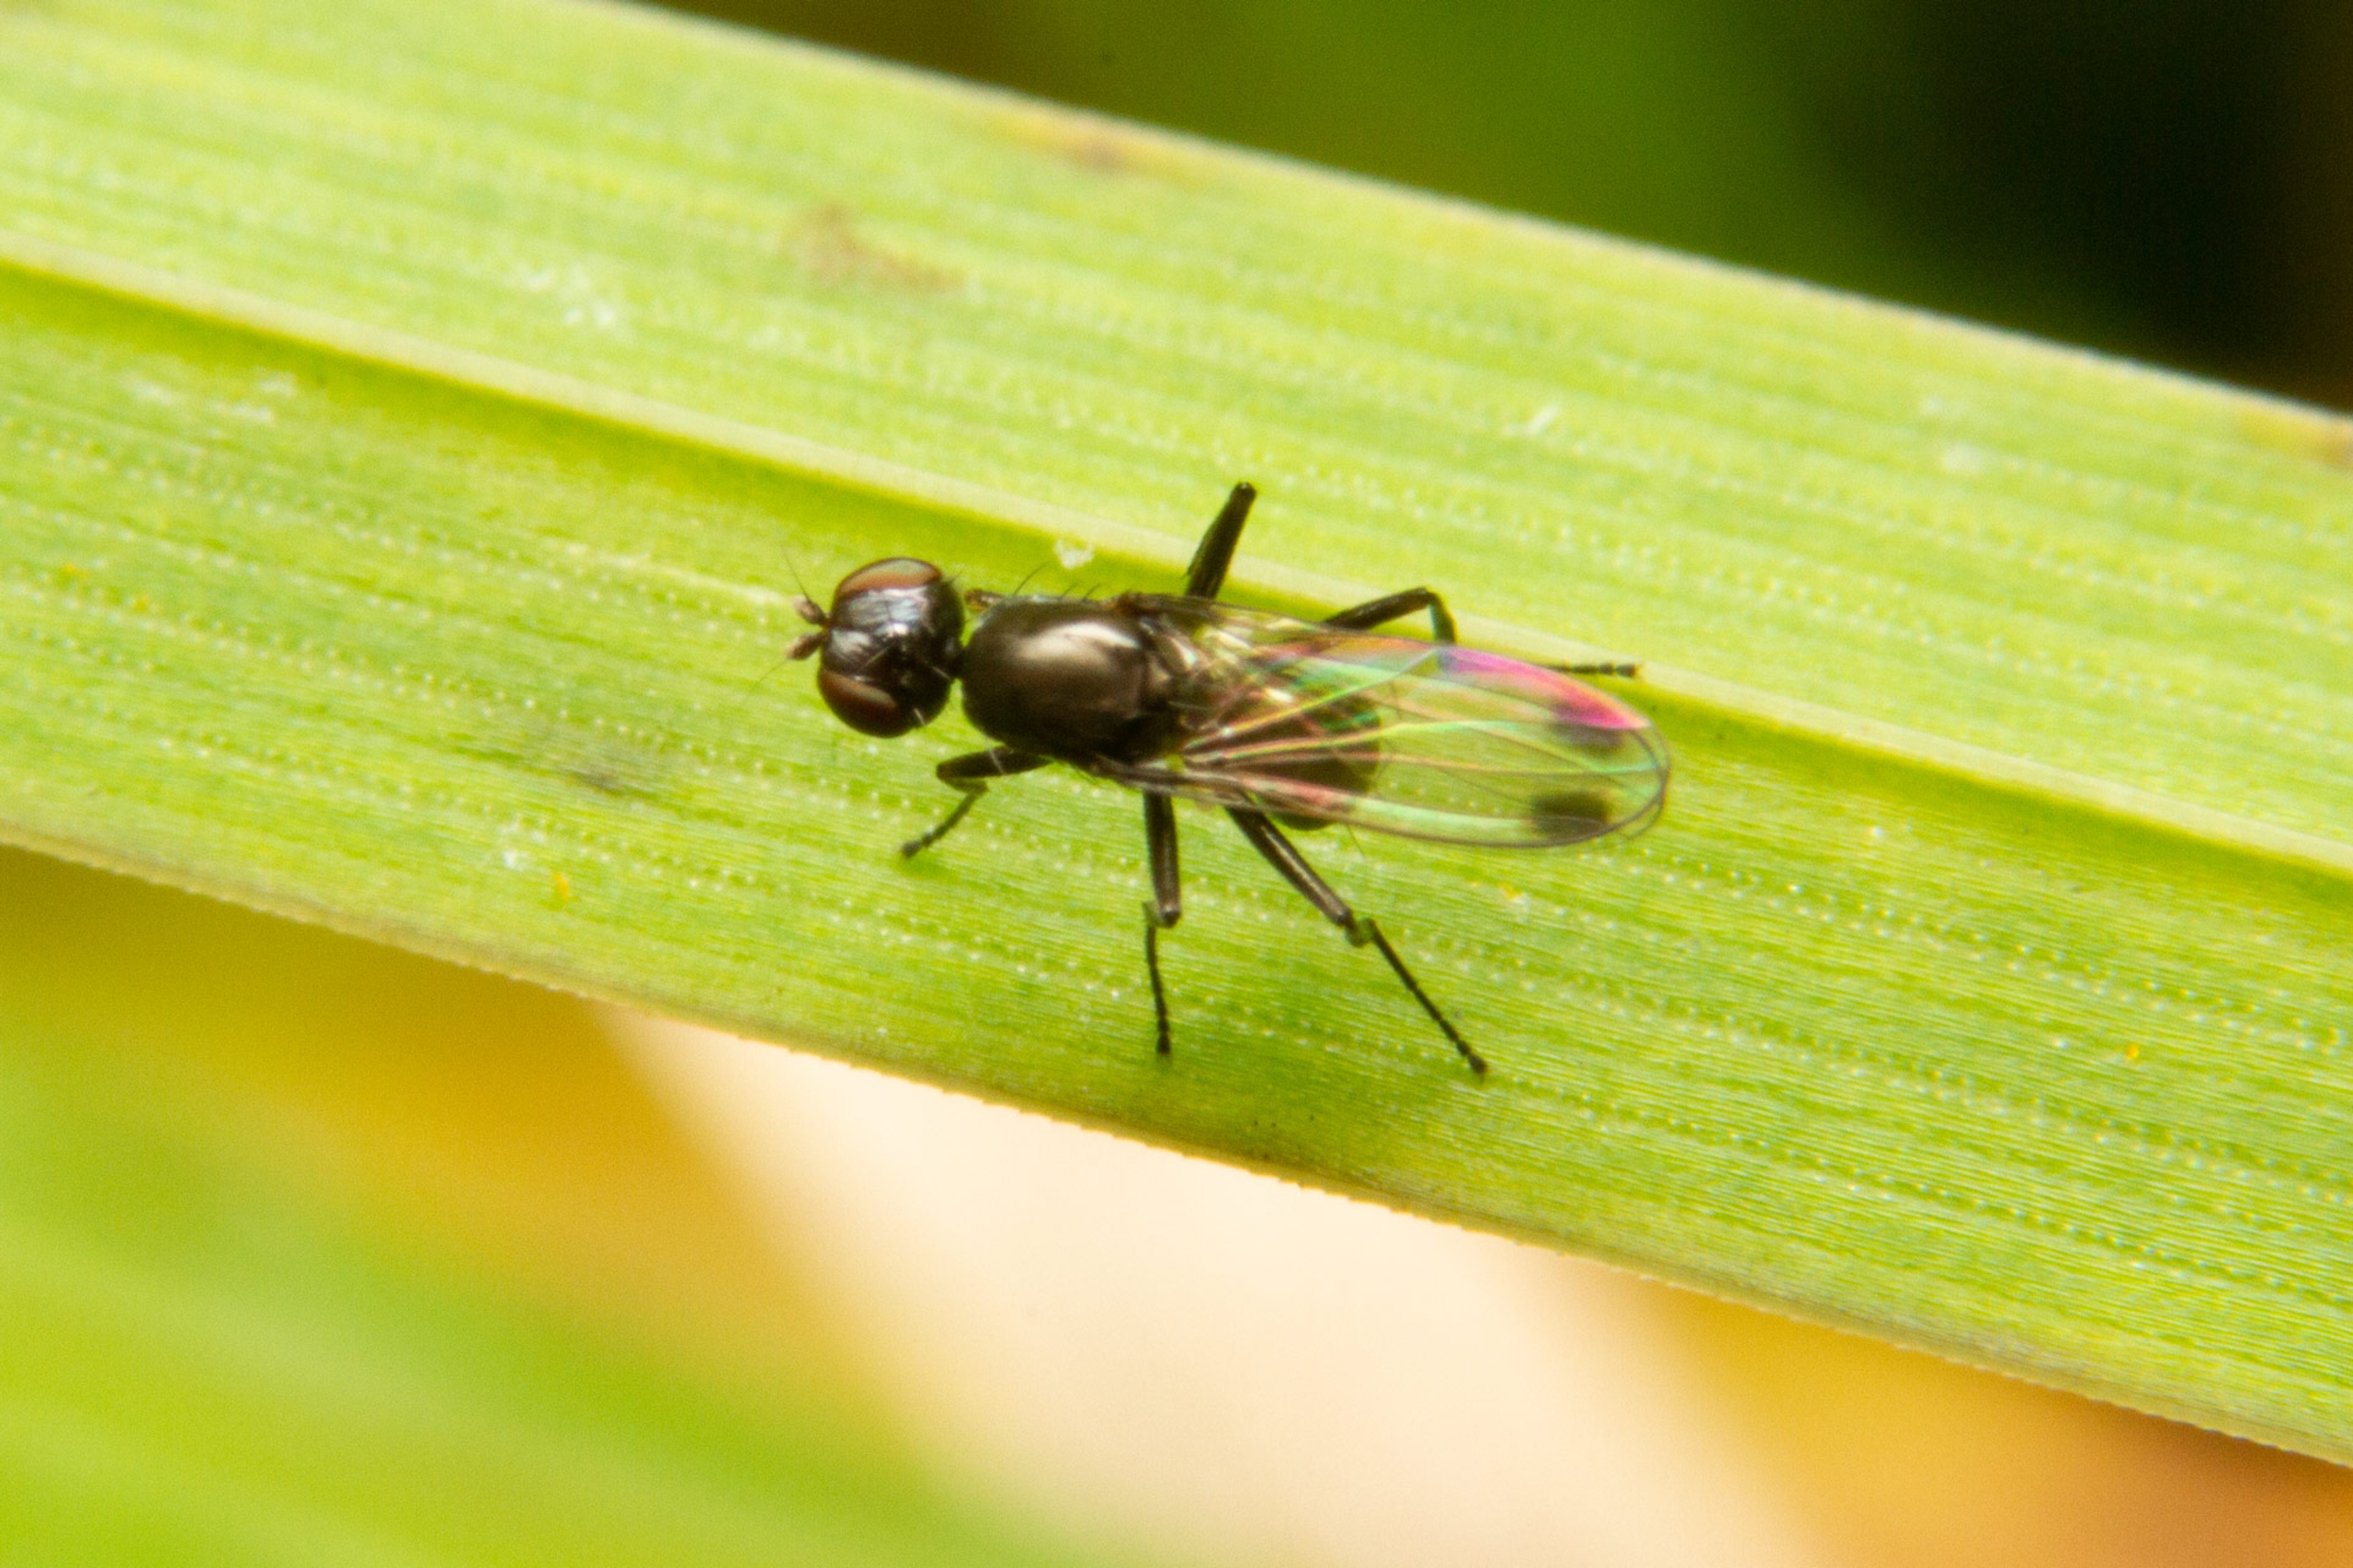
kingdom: Animalia
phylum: Arthropoda
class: Insecta
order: Diptera
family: Sepsidae
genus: Sepsis
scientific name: Sepsis
